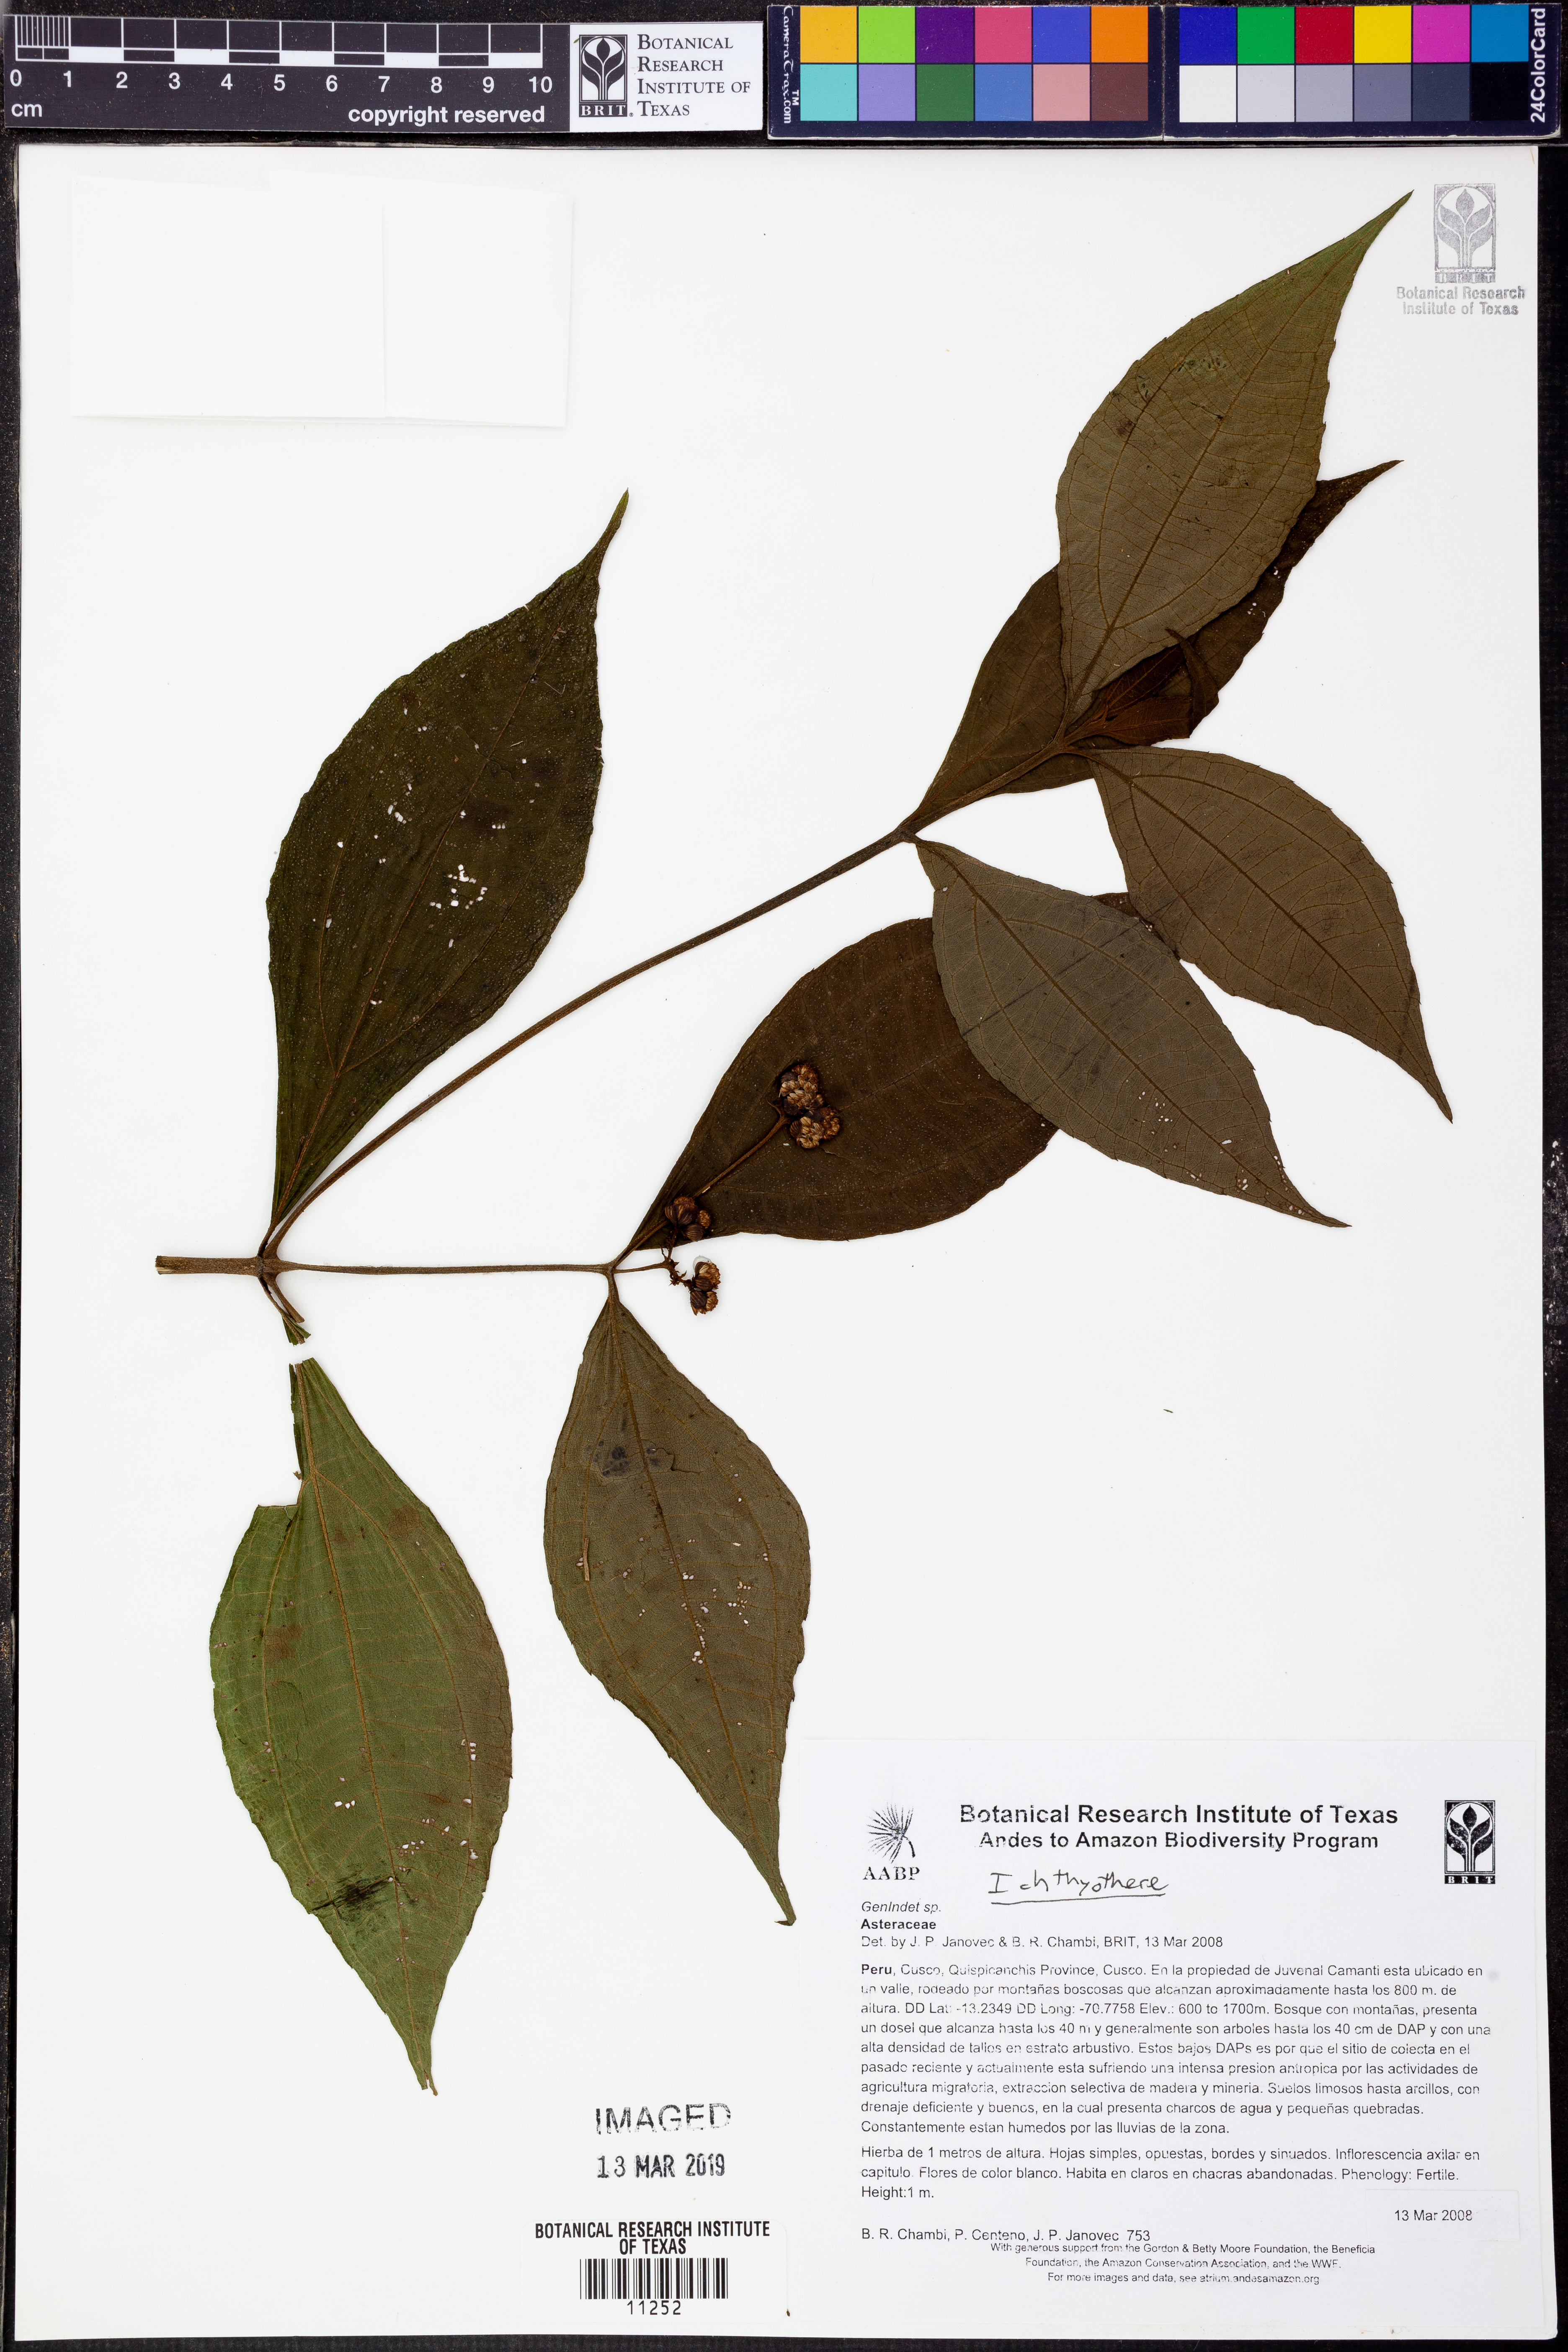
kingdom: Plantae
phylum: Tracheophyta
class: Magnoliopsida
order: Asterales
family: Asteraceae
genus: Ichthyothere
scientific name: Ichthyothere
